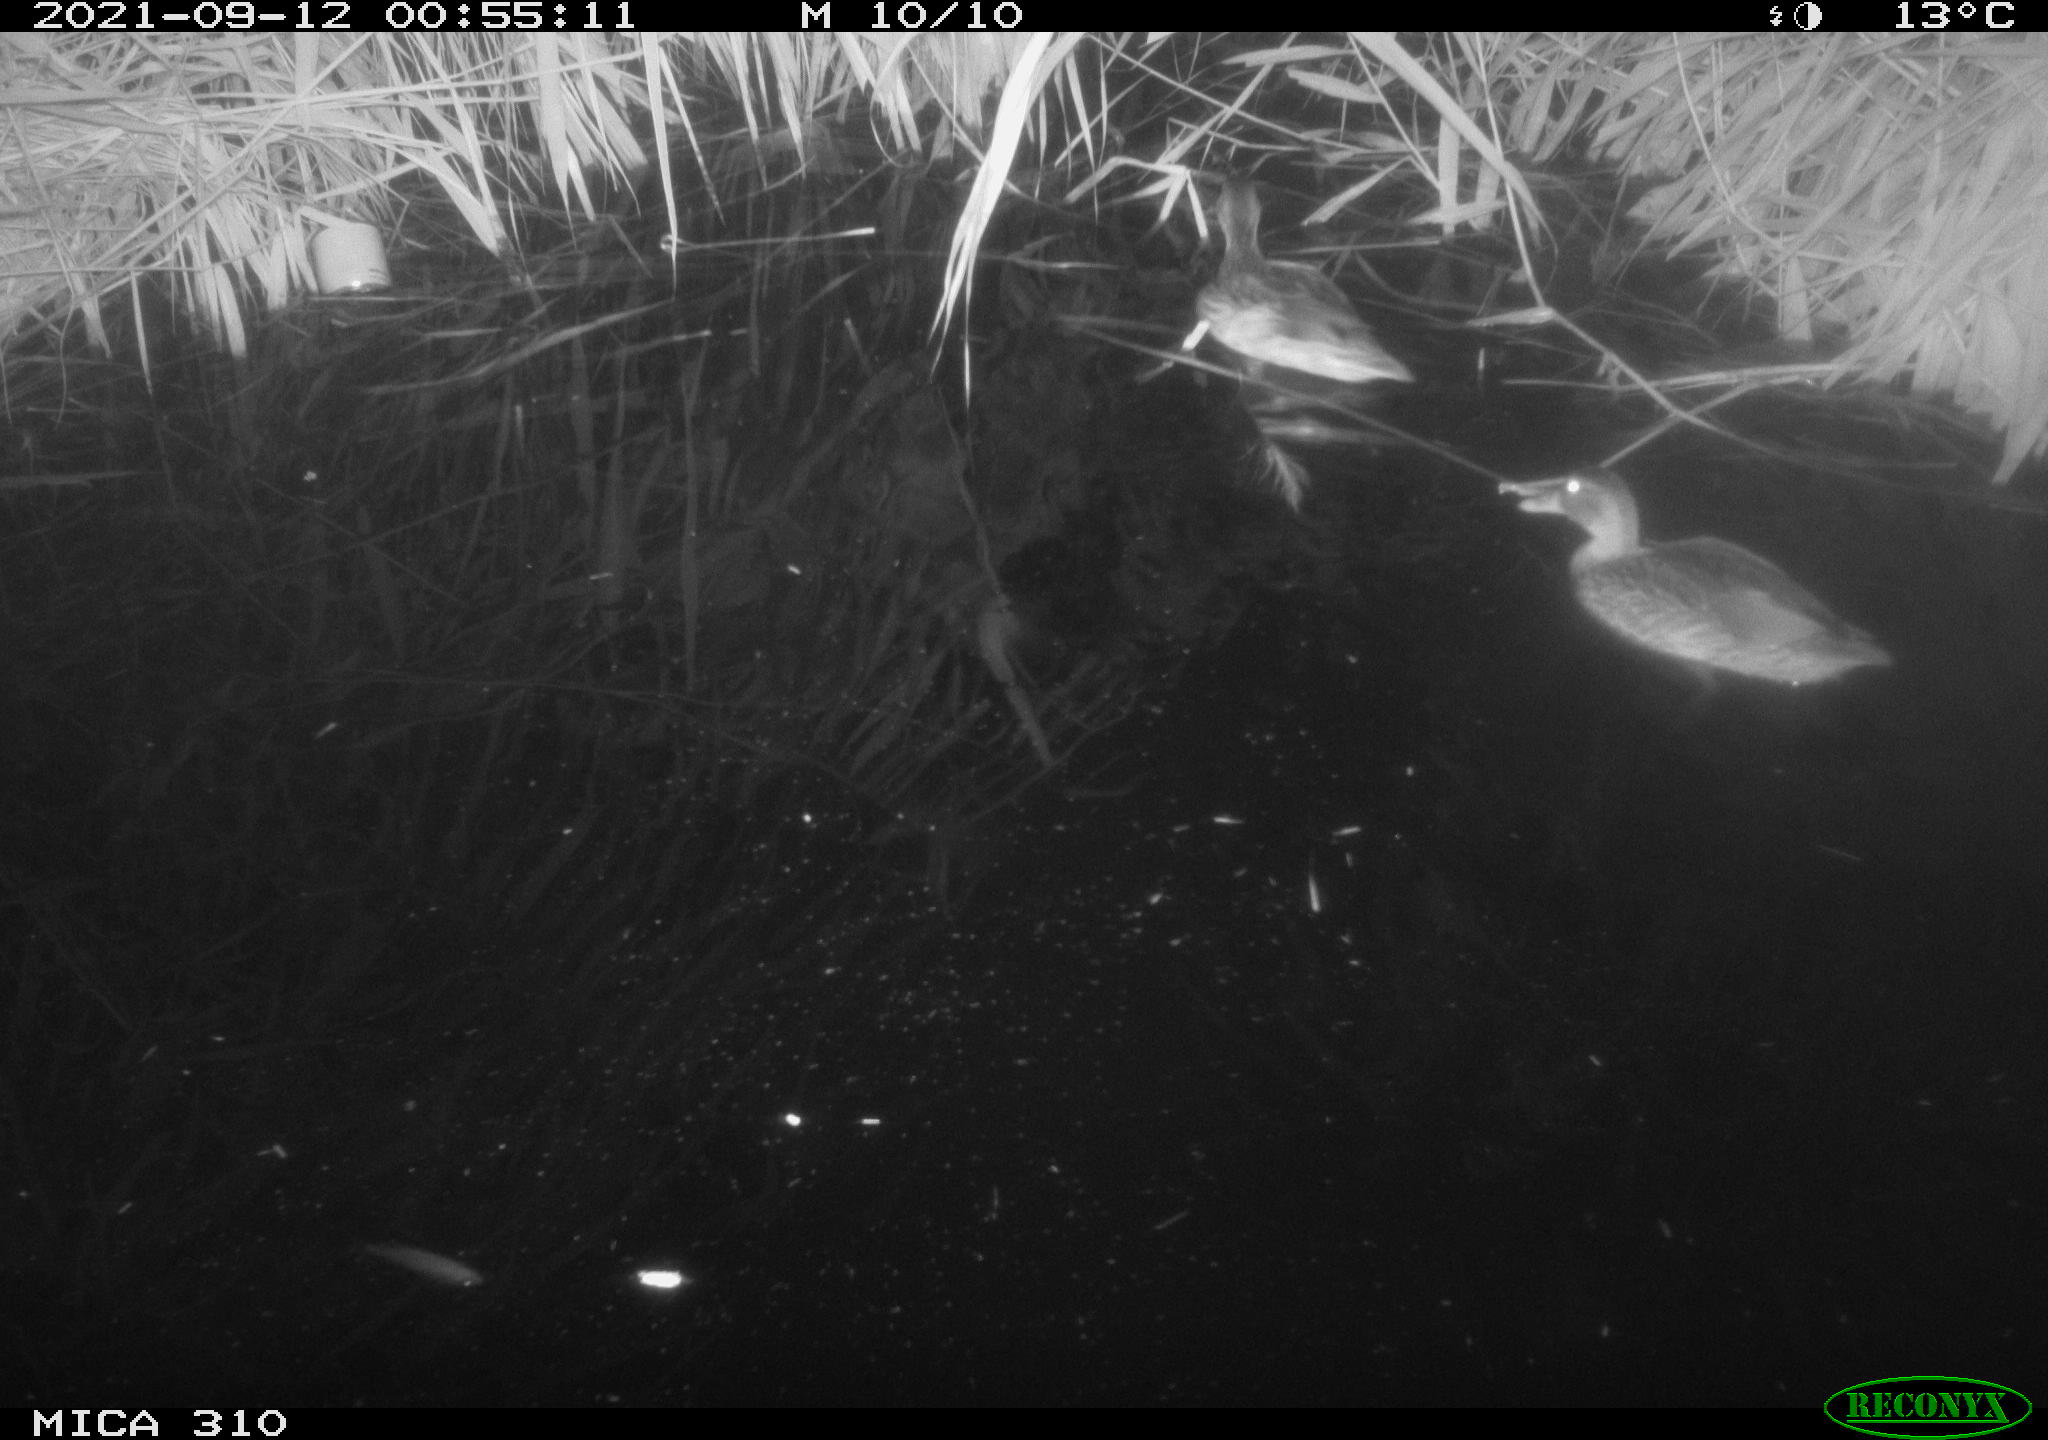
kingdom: Animalia
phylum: Chordata
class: Aves
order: Anseriformes
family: Anatidae
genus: Mareca
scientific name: Mareca strepera
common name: Gadwall
